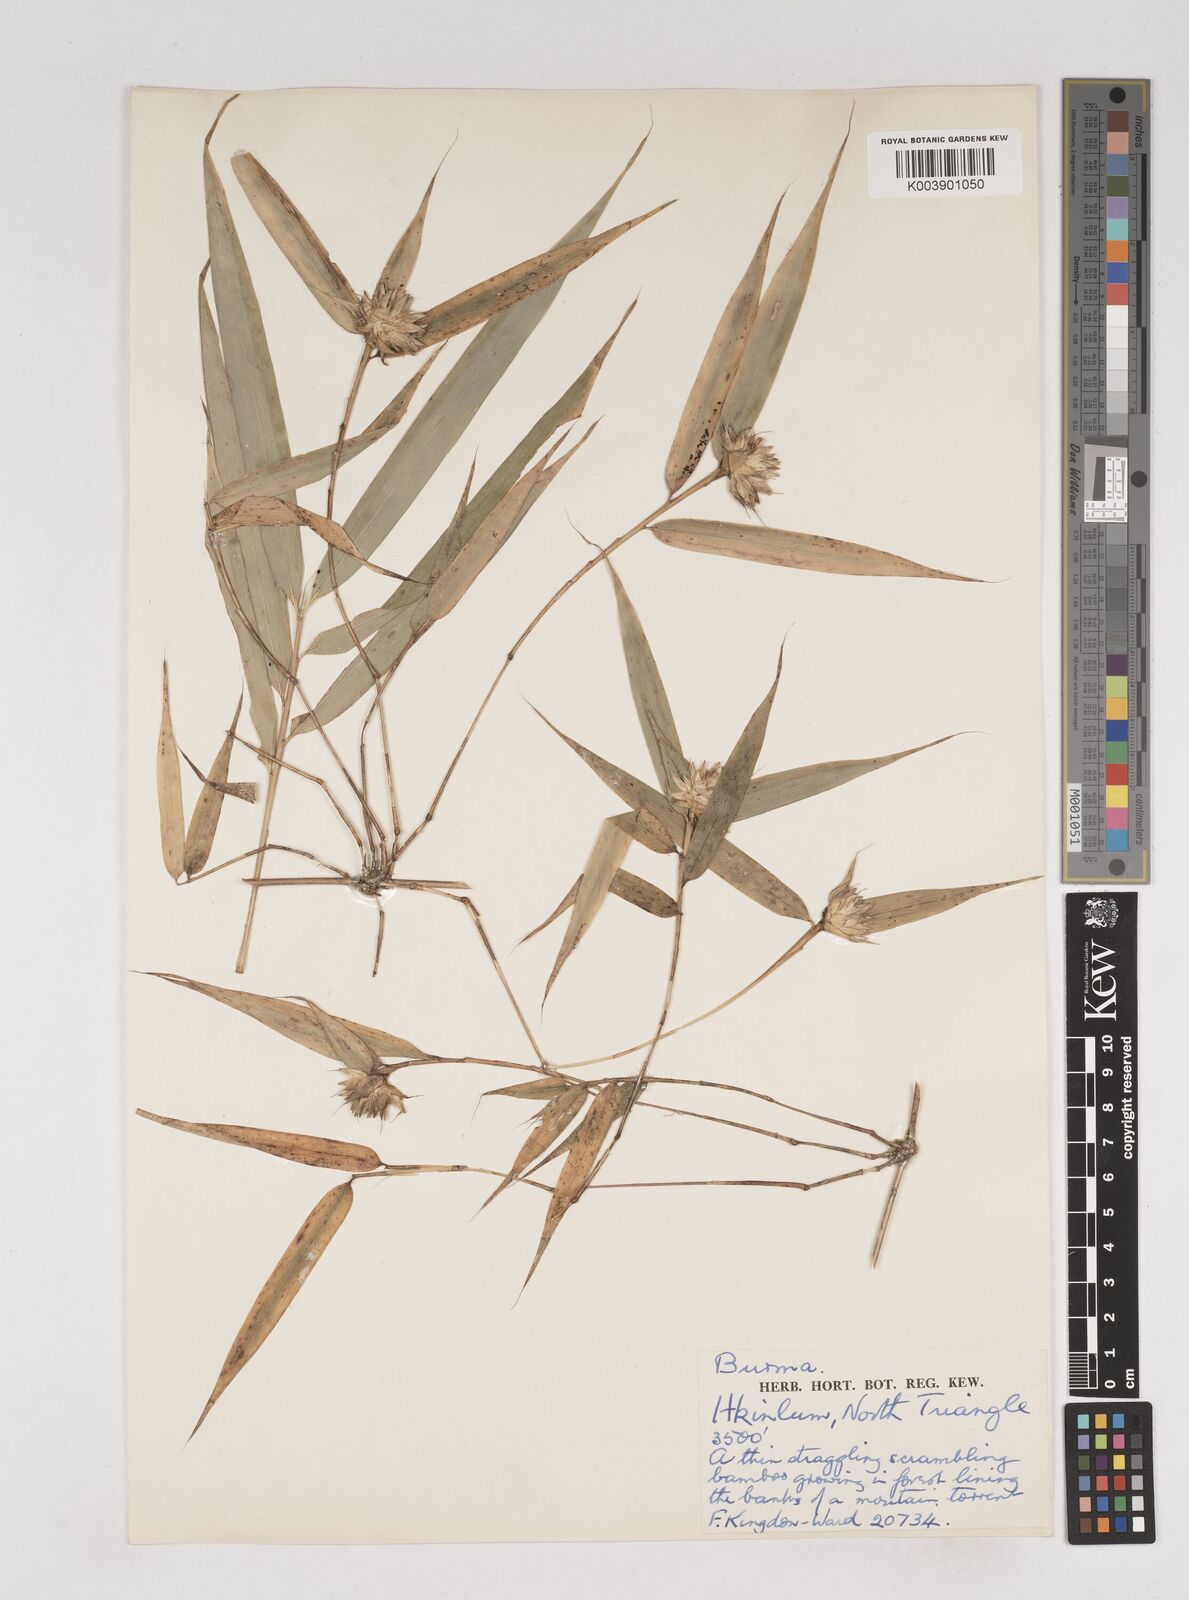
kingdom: Plantae
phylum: Tracheophyta
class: Liliopsida
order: Poales
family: Poaceae
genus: Cephalostachyum
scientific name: Cephalostachyum scandens
